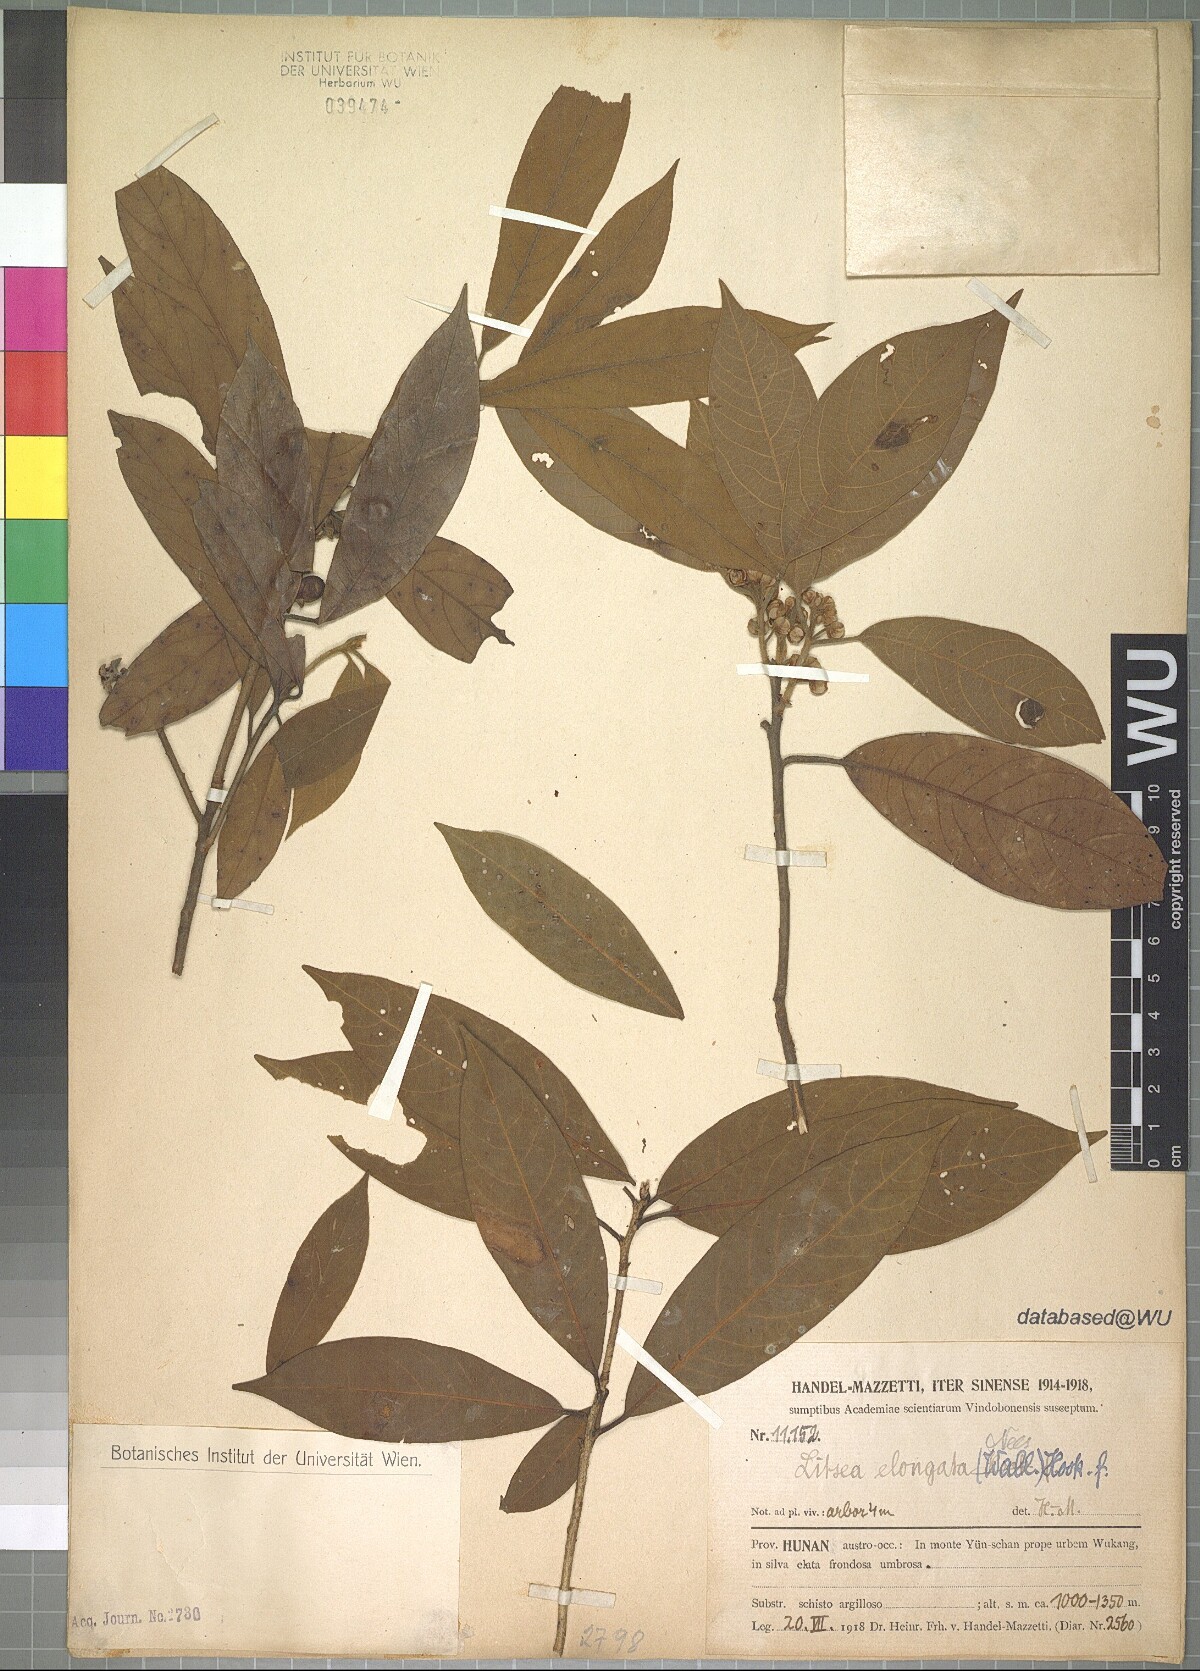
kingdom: Plantae
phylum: Tracheophyta
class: Magnoliopsida
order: Laurales
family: Lauraceae
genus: Litsea
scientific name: Litsea elongata
